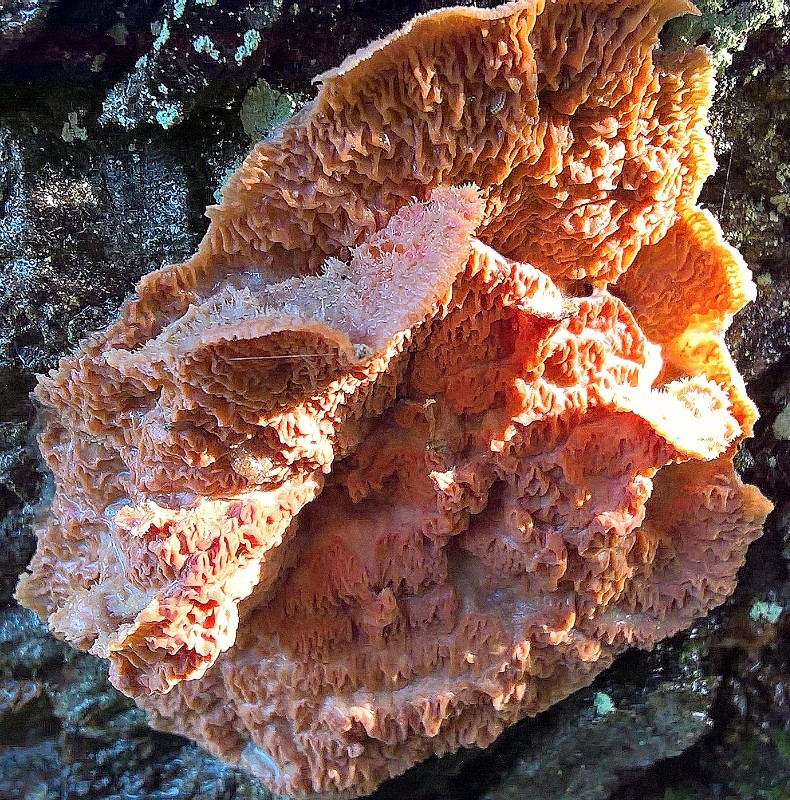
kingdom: Fungi
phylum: Basidiomycota
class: Agaricomycetes
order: Polyporales
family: Meruliaceae
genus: Phlebia
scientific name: Phlebia tremellosa
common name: bævrende åresvamp
